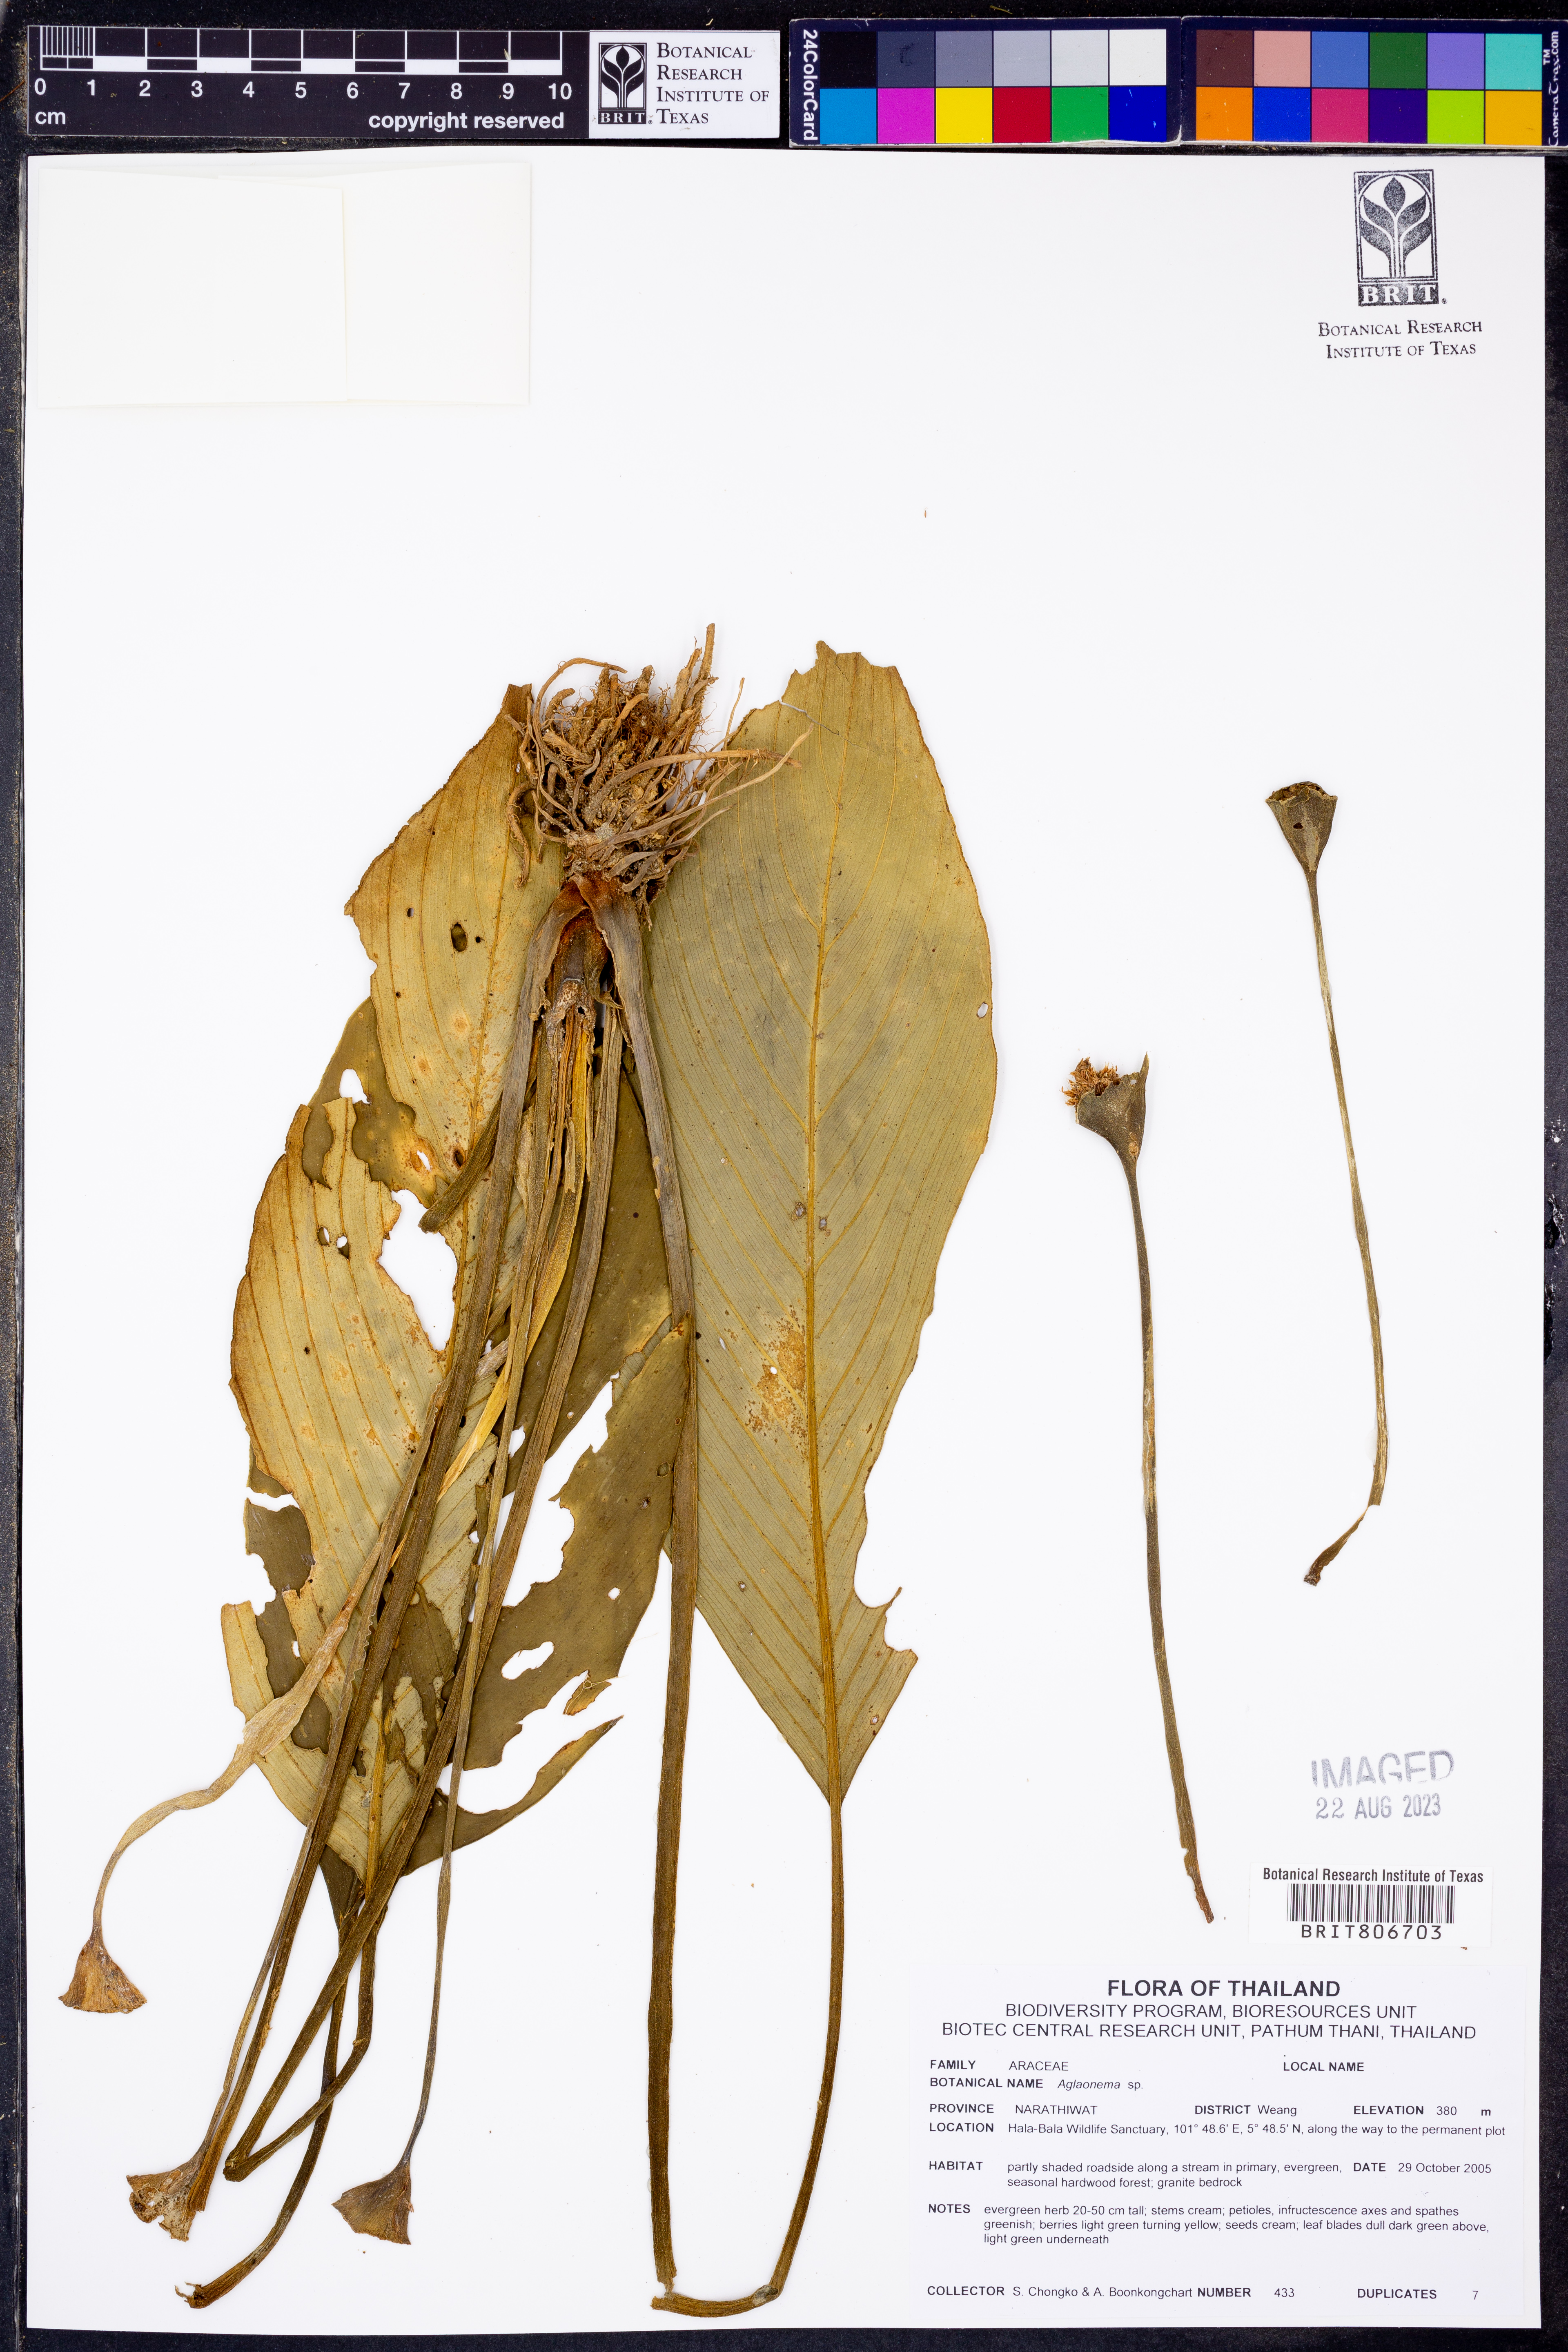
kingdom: Plantae
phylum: Tracheophyta
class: Liliopsida
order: Alismatales
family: Araceae
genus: Aglaonema
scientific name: Aglaonema
